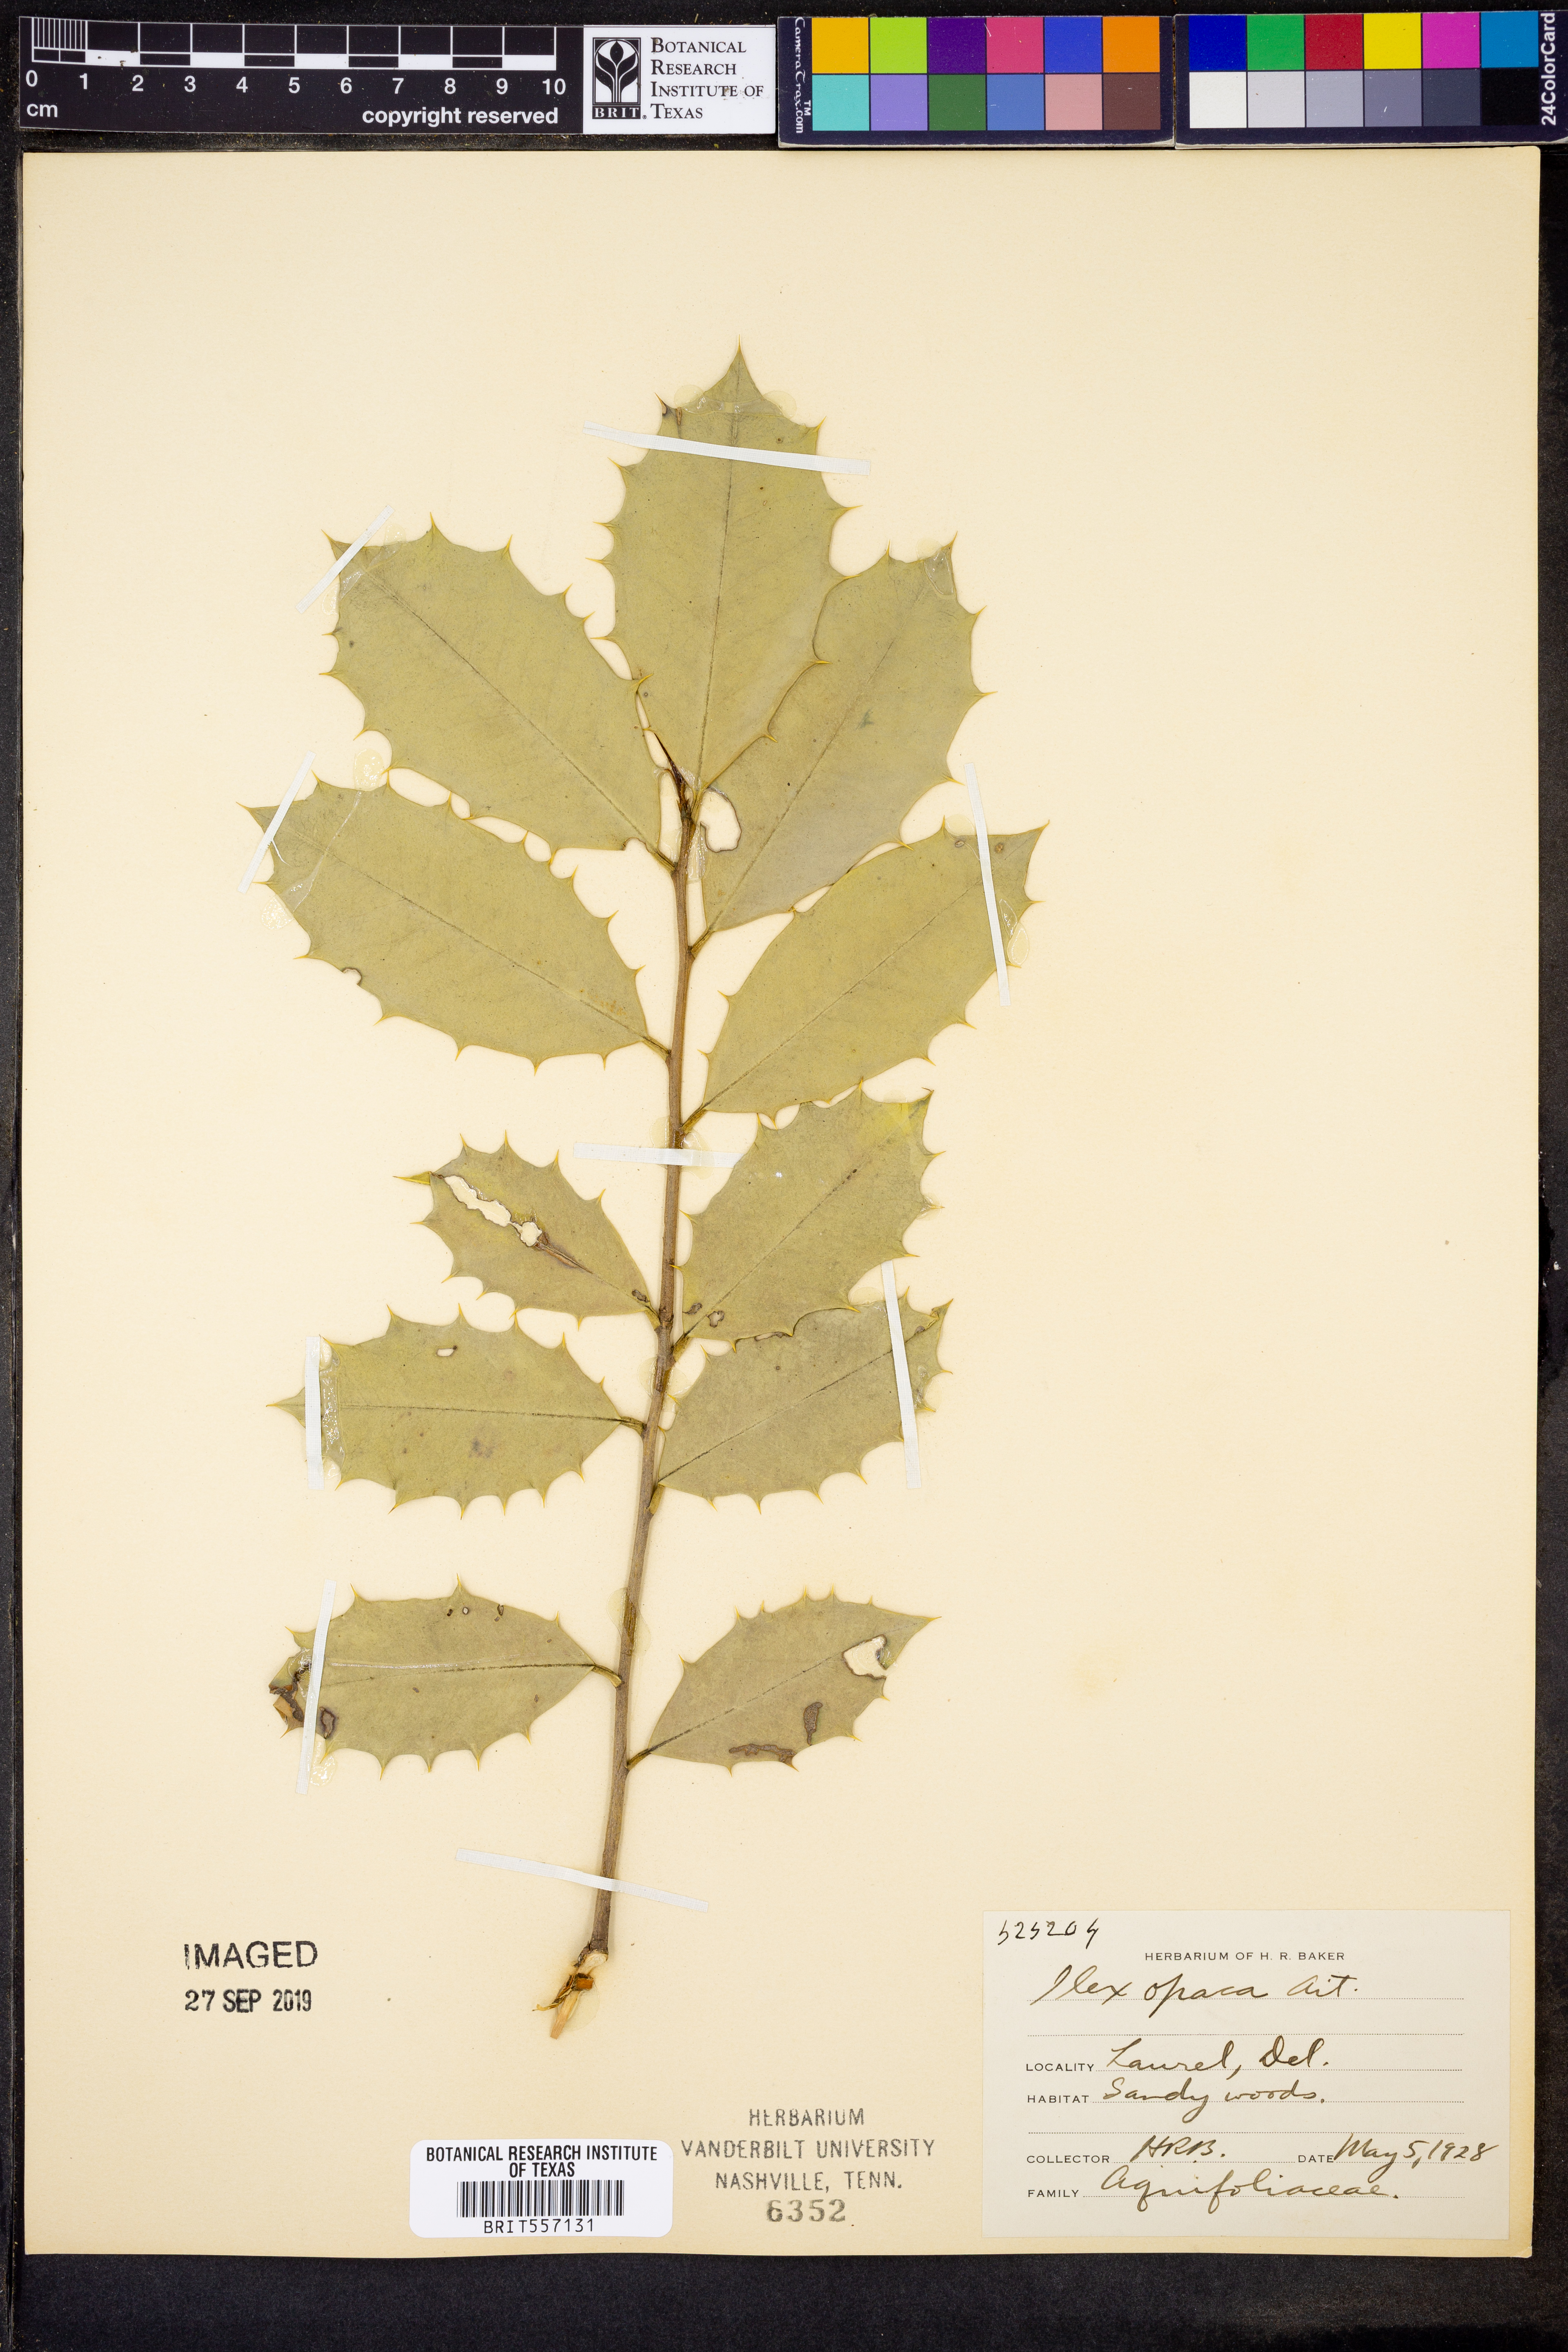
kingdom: Plantae
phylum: Tracheophyta
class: Magnoliopsida
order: Aquifoliales
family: Aquifoliaceae
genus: Ilex
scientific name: Ilex opaca
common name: American holly
